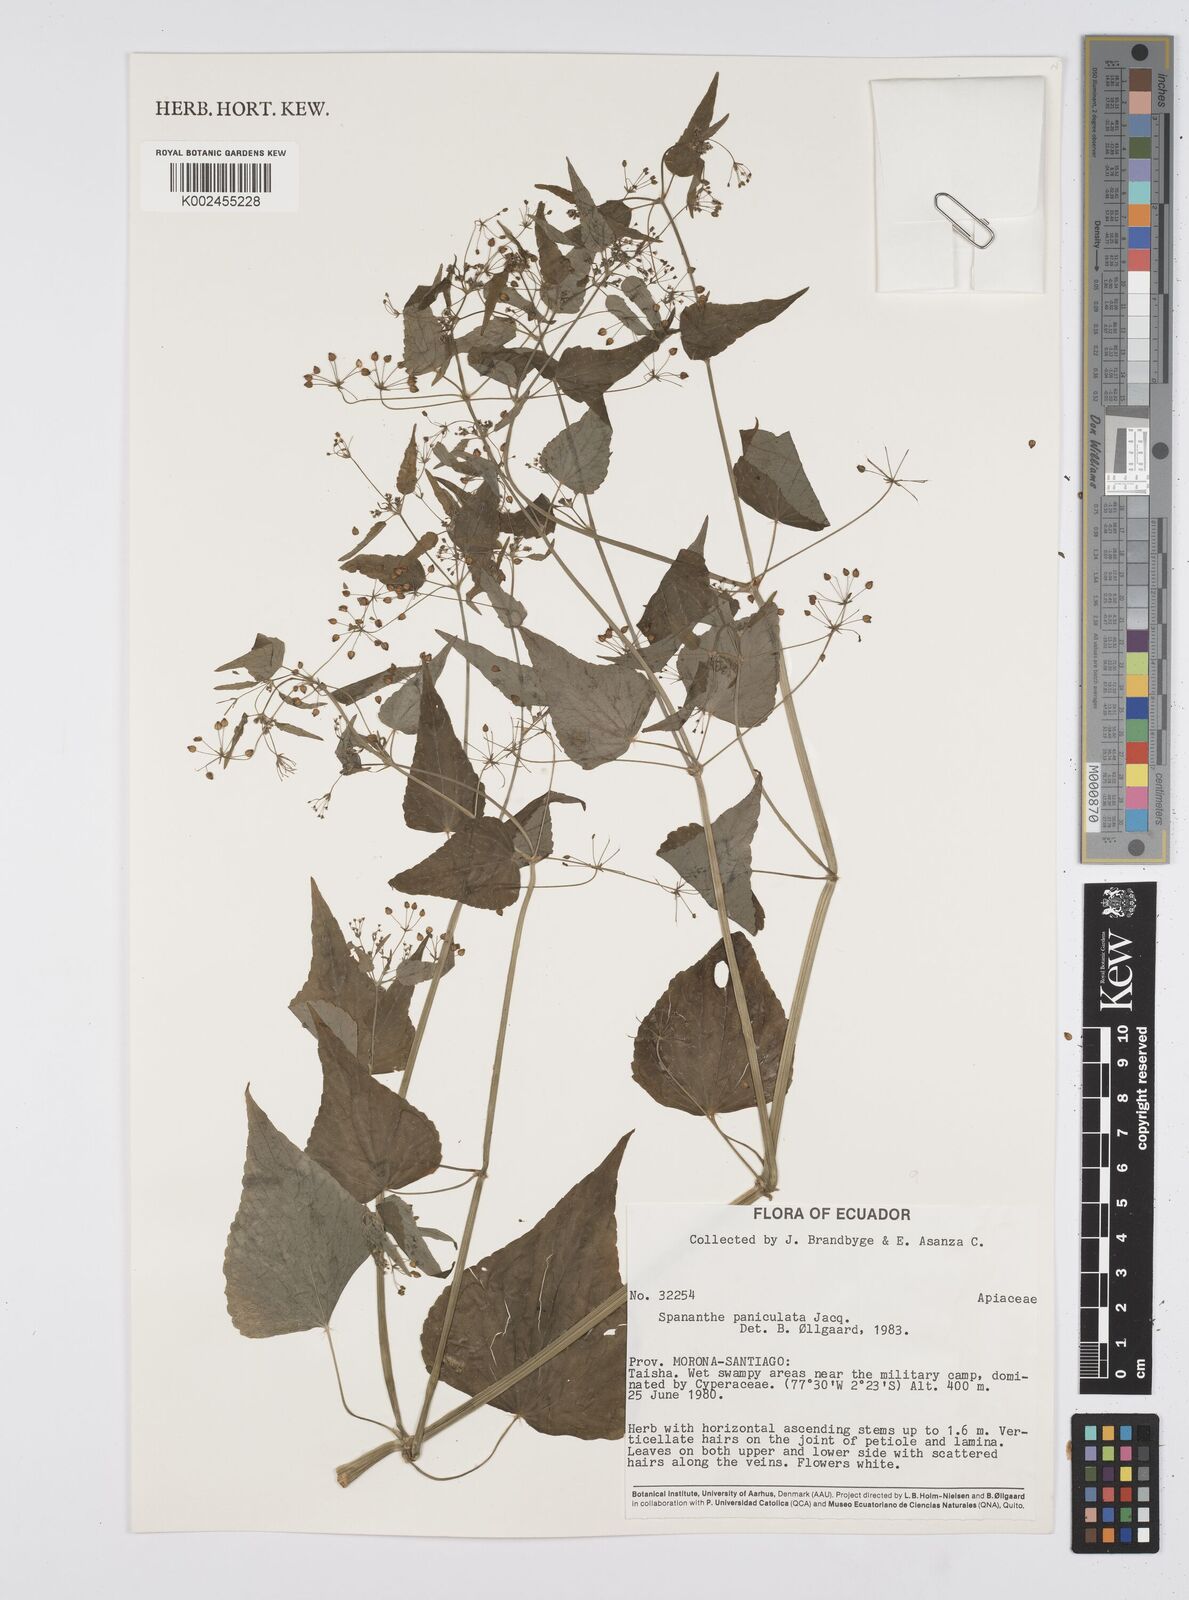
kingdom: Plantae
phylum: Tracheophyta
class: Magnoliopsida
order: Apiales
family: Apiaceae
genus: Azorella
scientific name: Azorella
